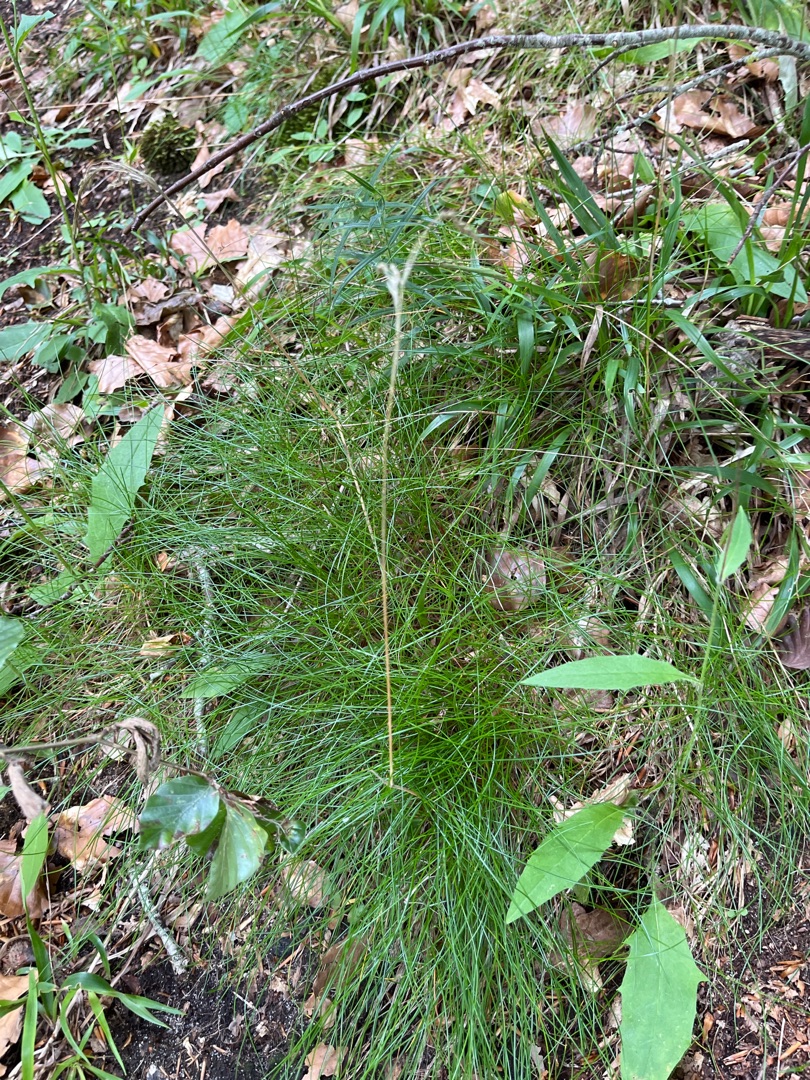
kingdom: Plantae
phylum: Tracheophyta
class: Liliopsida
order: Poales
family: Poaceae
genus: Avenella
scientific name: Avenella flexuosa
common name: Bølget bunke
